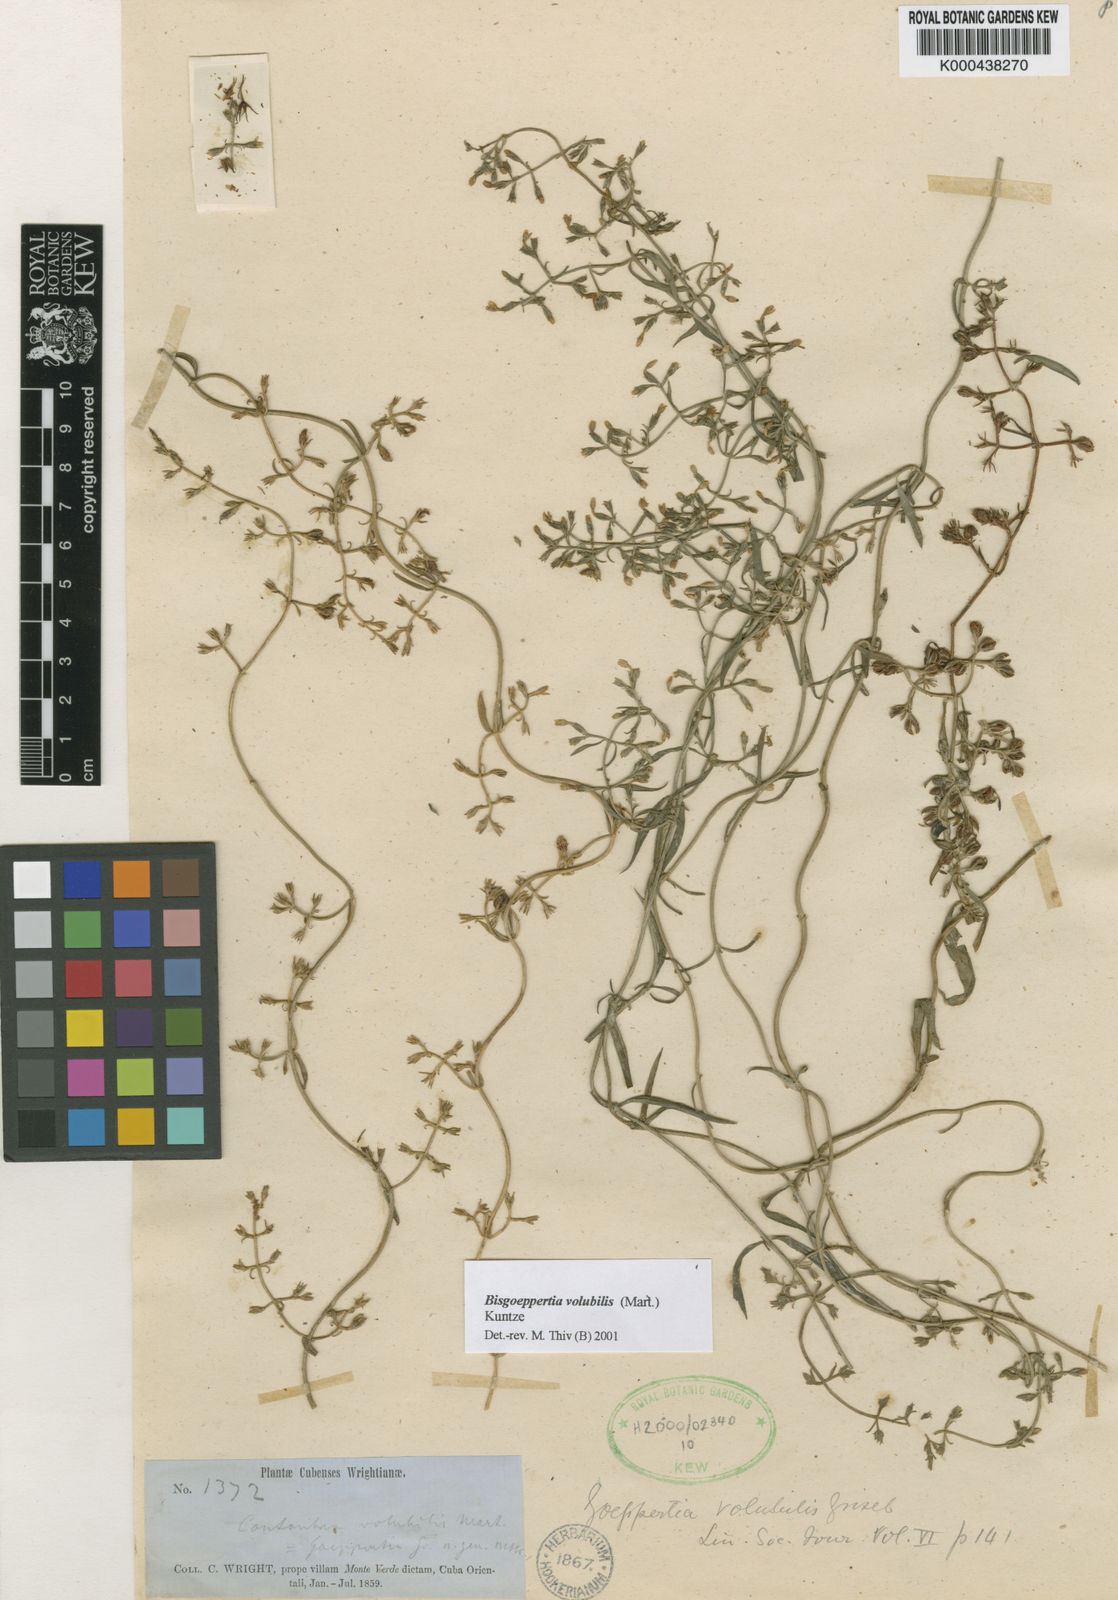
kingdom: Plantae
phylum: Tracheophyta
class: Magnoliopsida
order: Gentianales
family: Gentianaceae
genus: Bisgoeppertia
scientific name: Bisgoeppertia scandens
